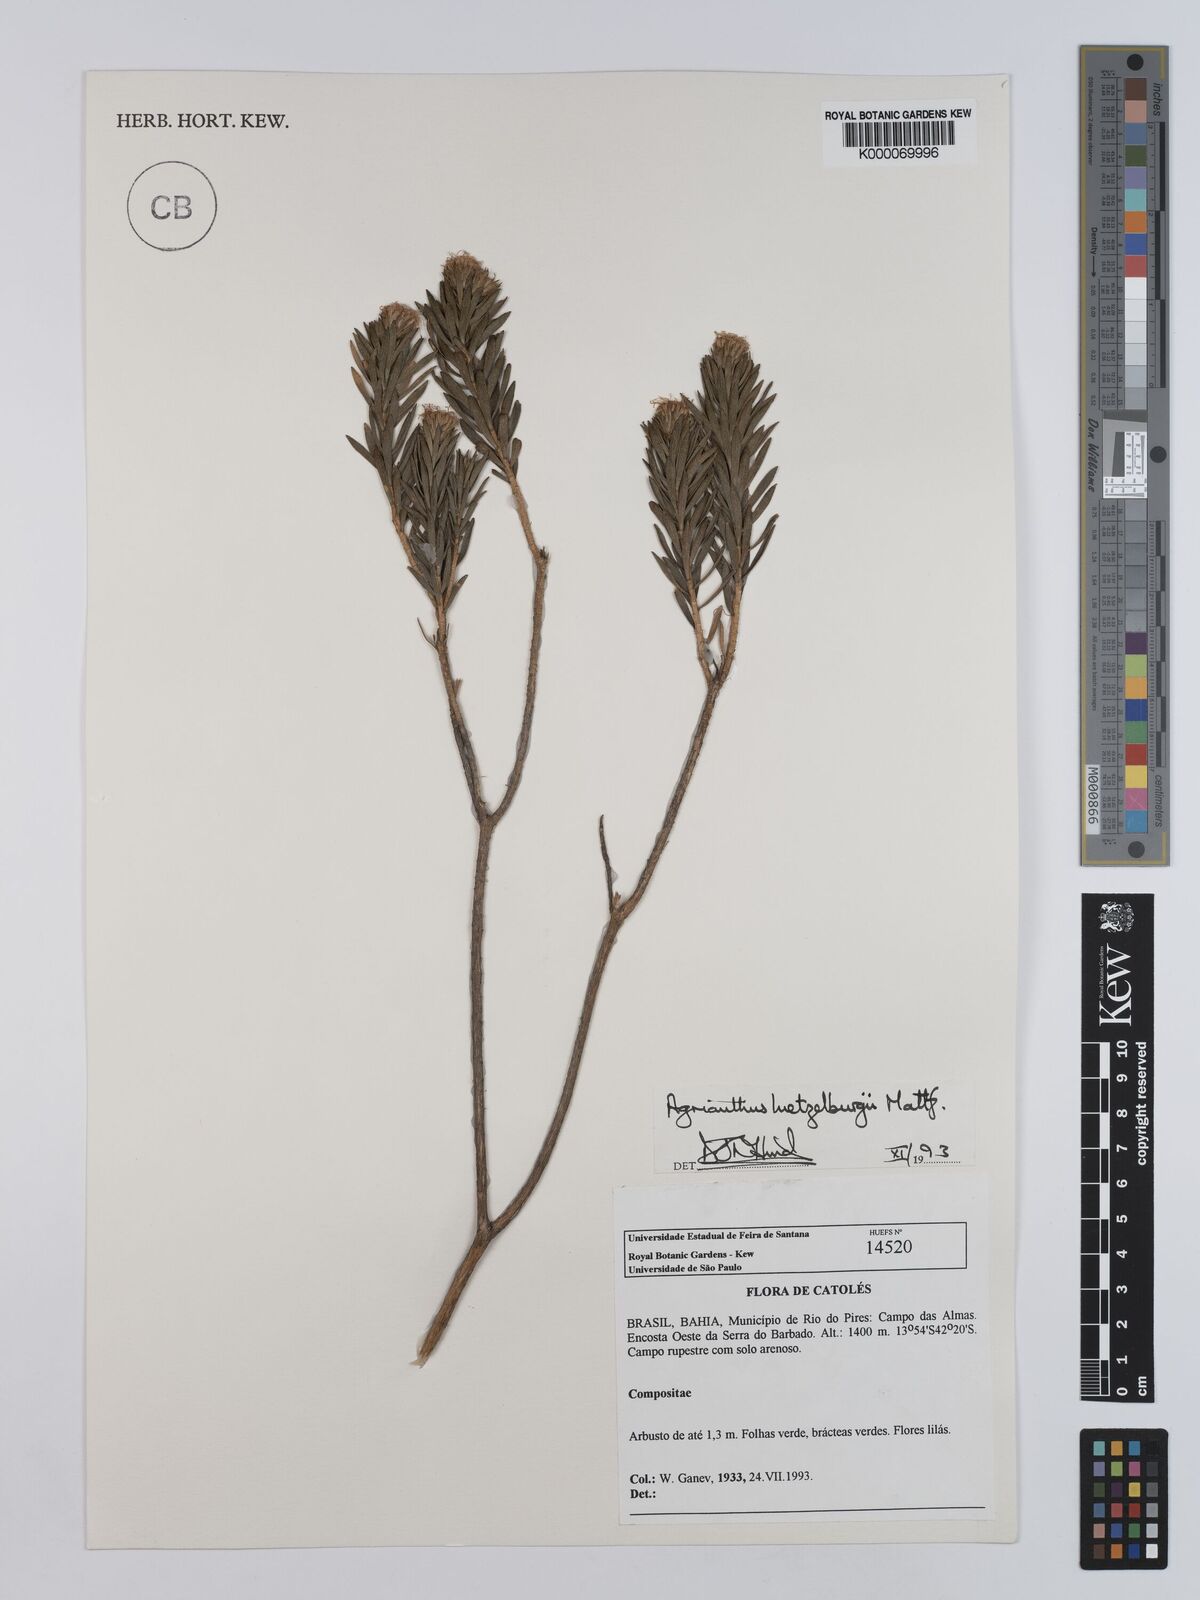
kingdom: Plantae
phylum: Tracheophyta
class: Magnoliopsida
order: Asterales
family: Asteraceae
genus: Agrianthus
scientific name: Agrianthus
